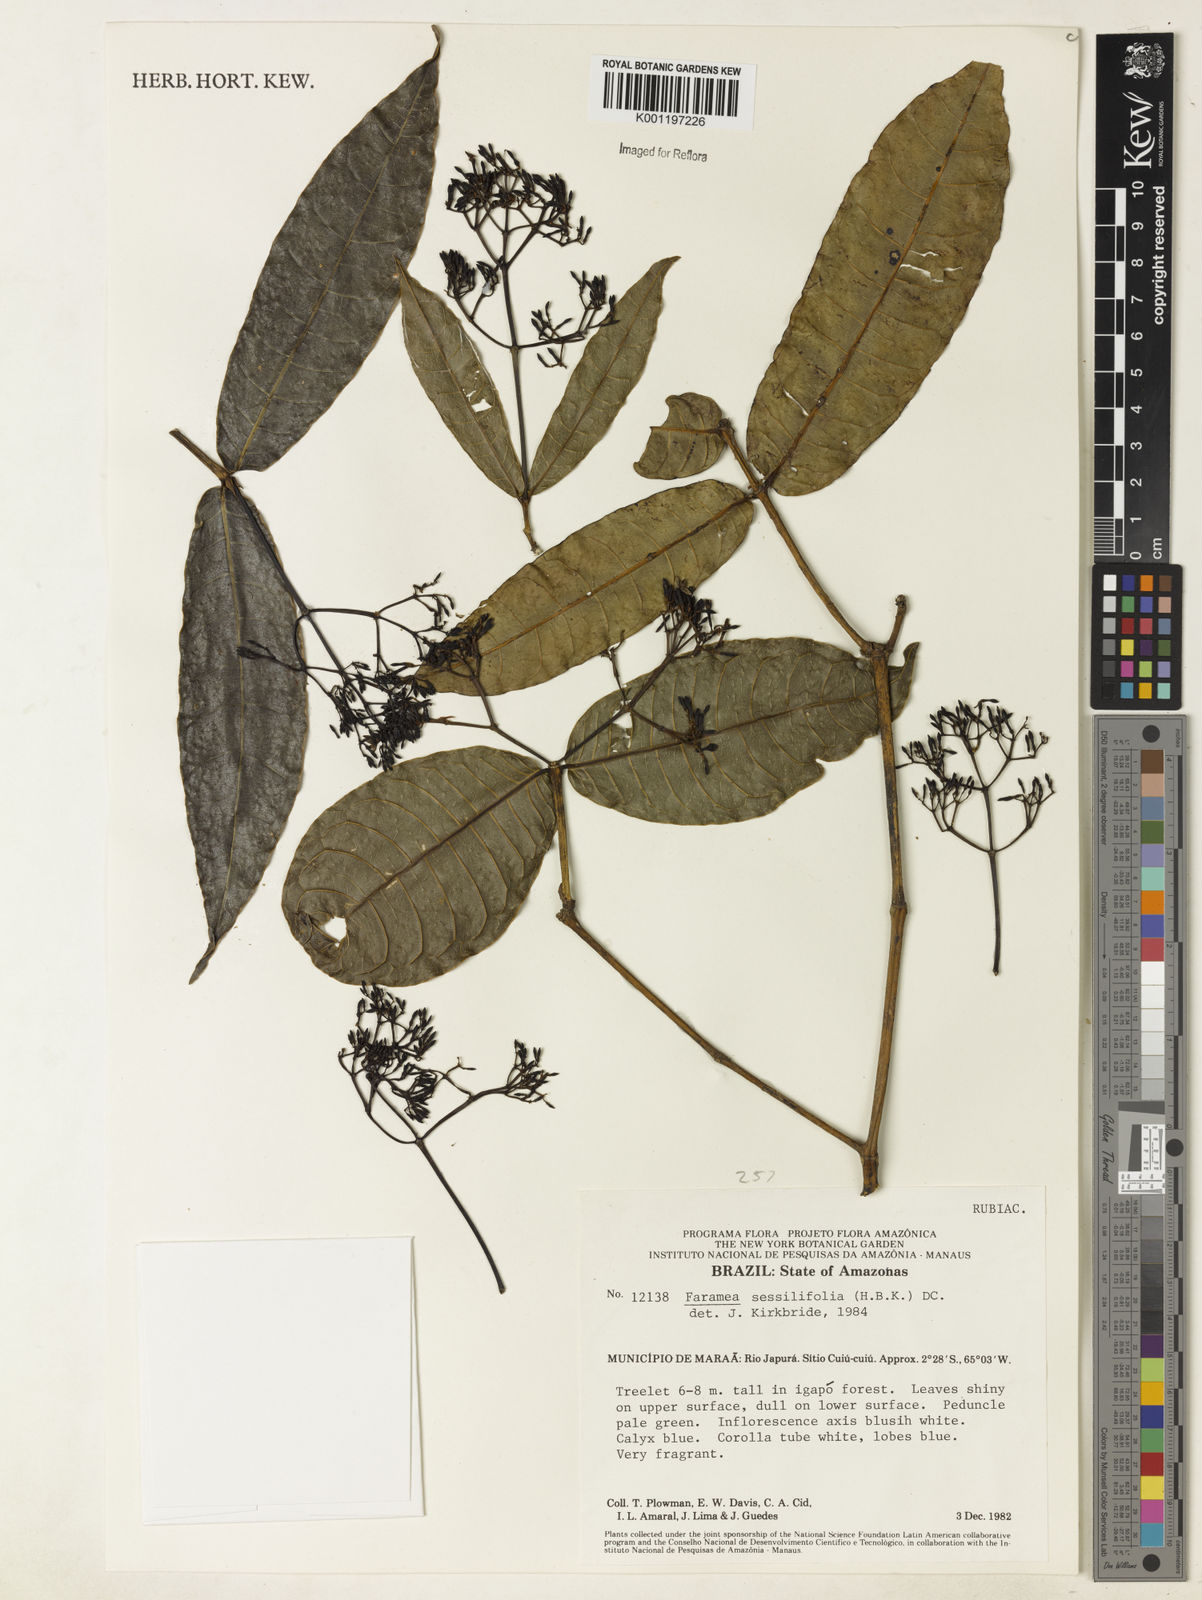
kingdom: Plantae
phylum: Tracheophyta
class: Magnoliopsida
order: Gentianales
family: Rubiaceae
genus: Faramea
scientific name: Faramea sessilifolia
